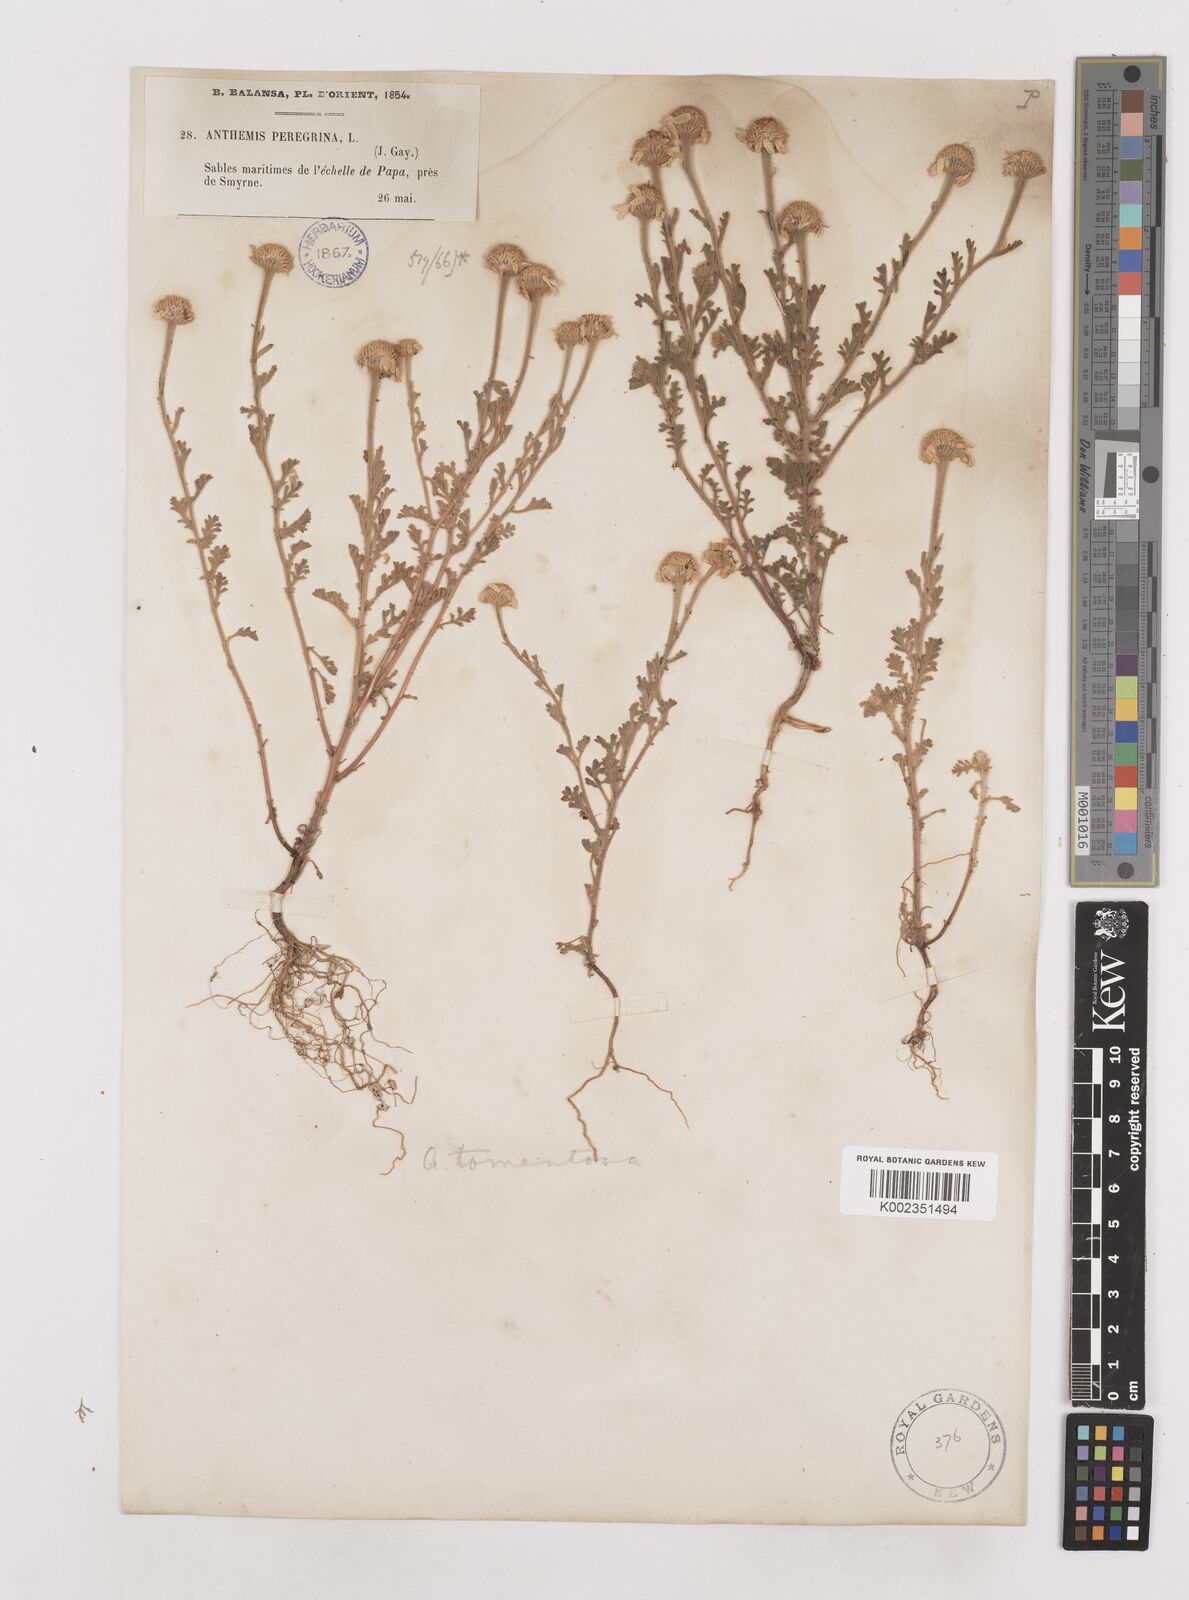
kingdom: Plantae
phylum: Tracheophyta
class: Magnoliopsida
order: Asterales
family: Asteraceae
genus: Anthemis
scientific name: Anthemis tomentosa
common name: Woolly chamomile
